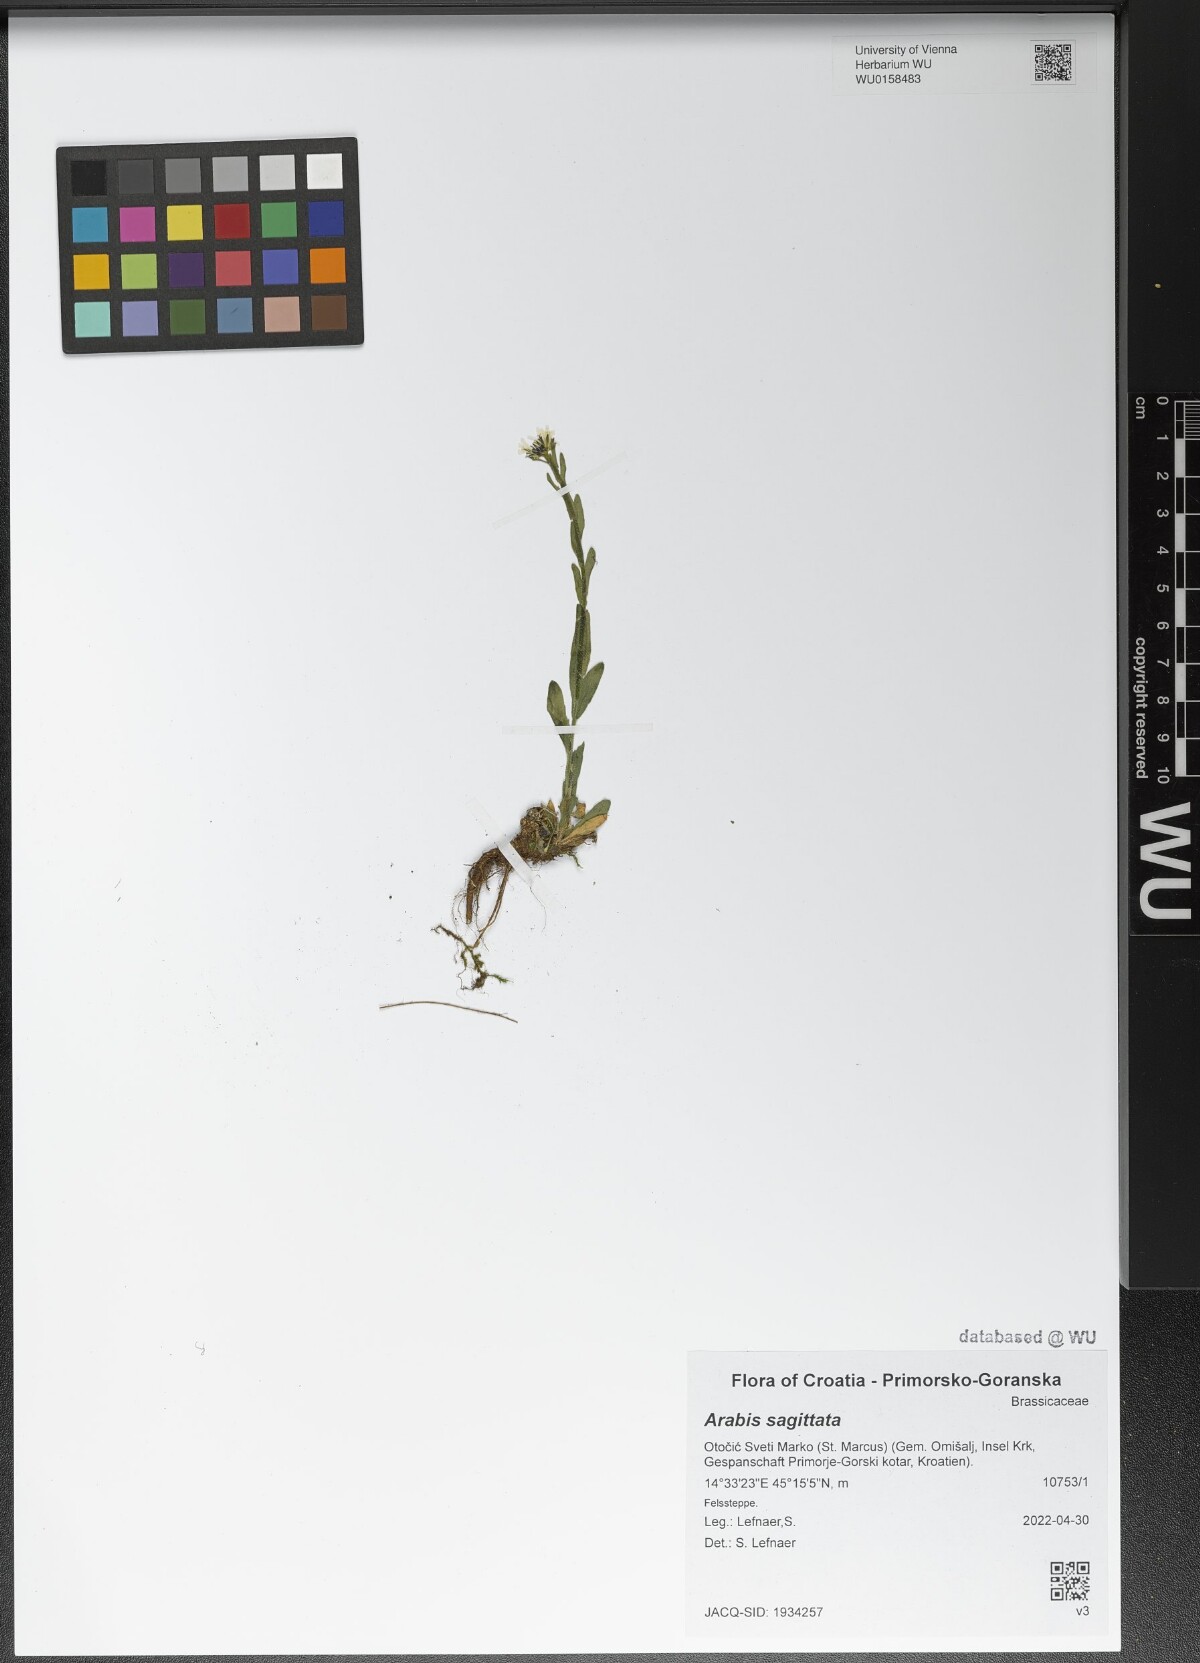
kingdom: Plantae
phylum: Tracheophyta
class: Magnoliopsida
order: Brassicales
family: Brassicaceae
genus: Arabis
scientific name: Arabis sagittata
